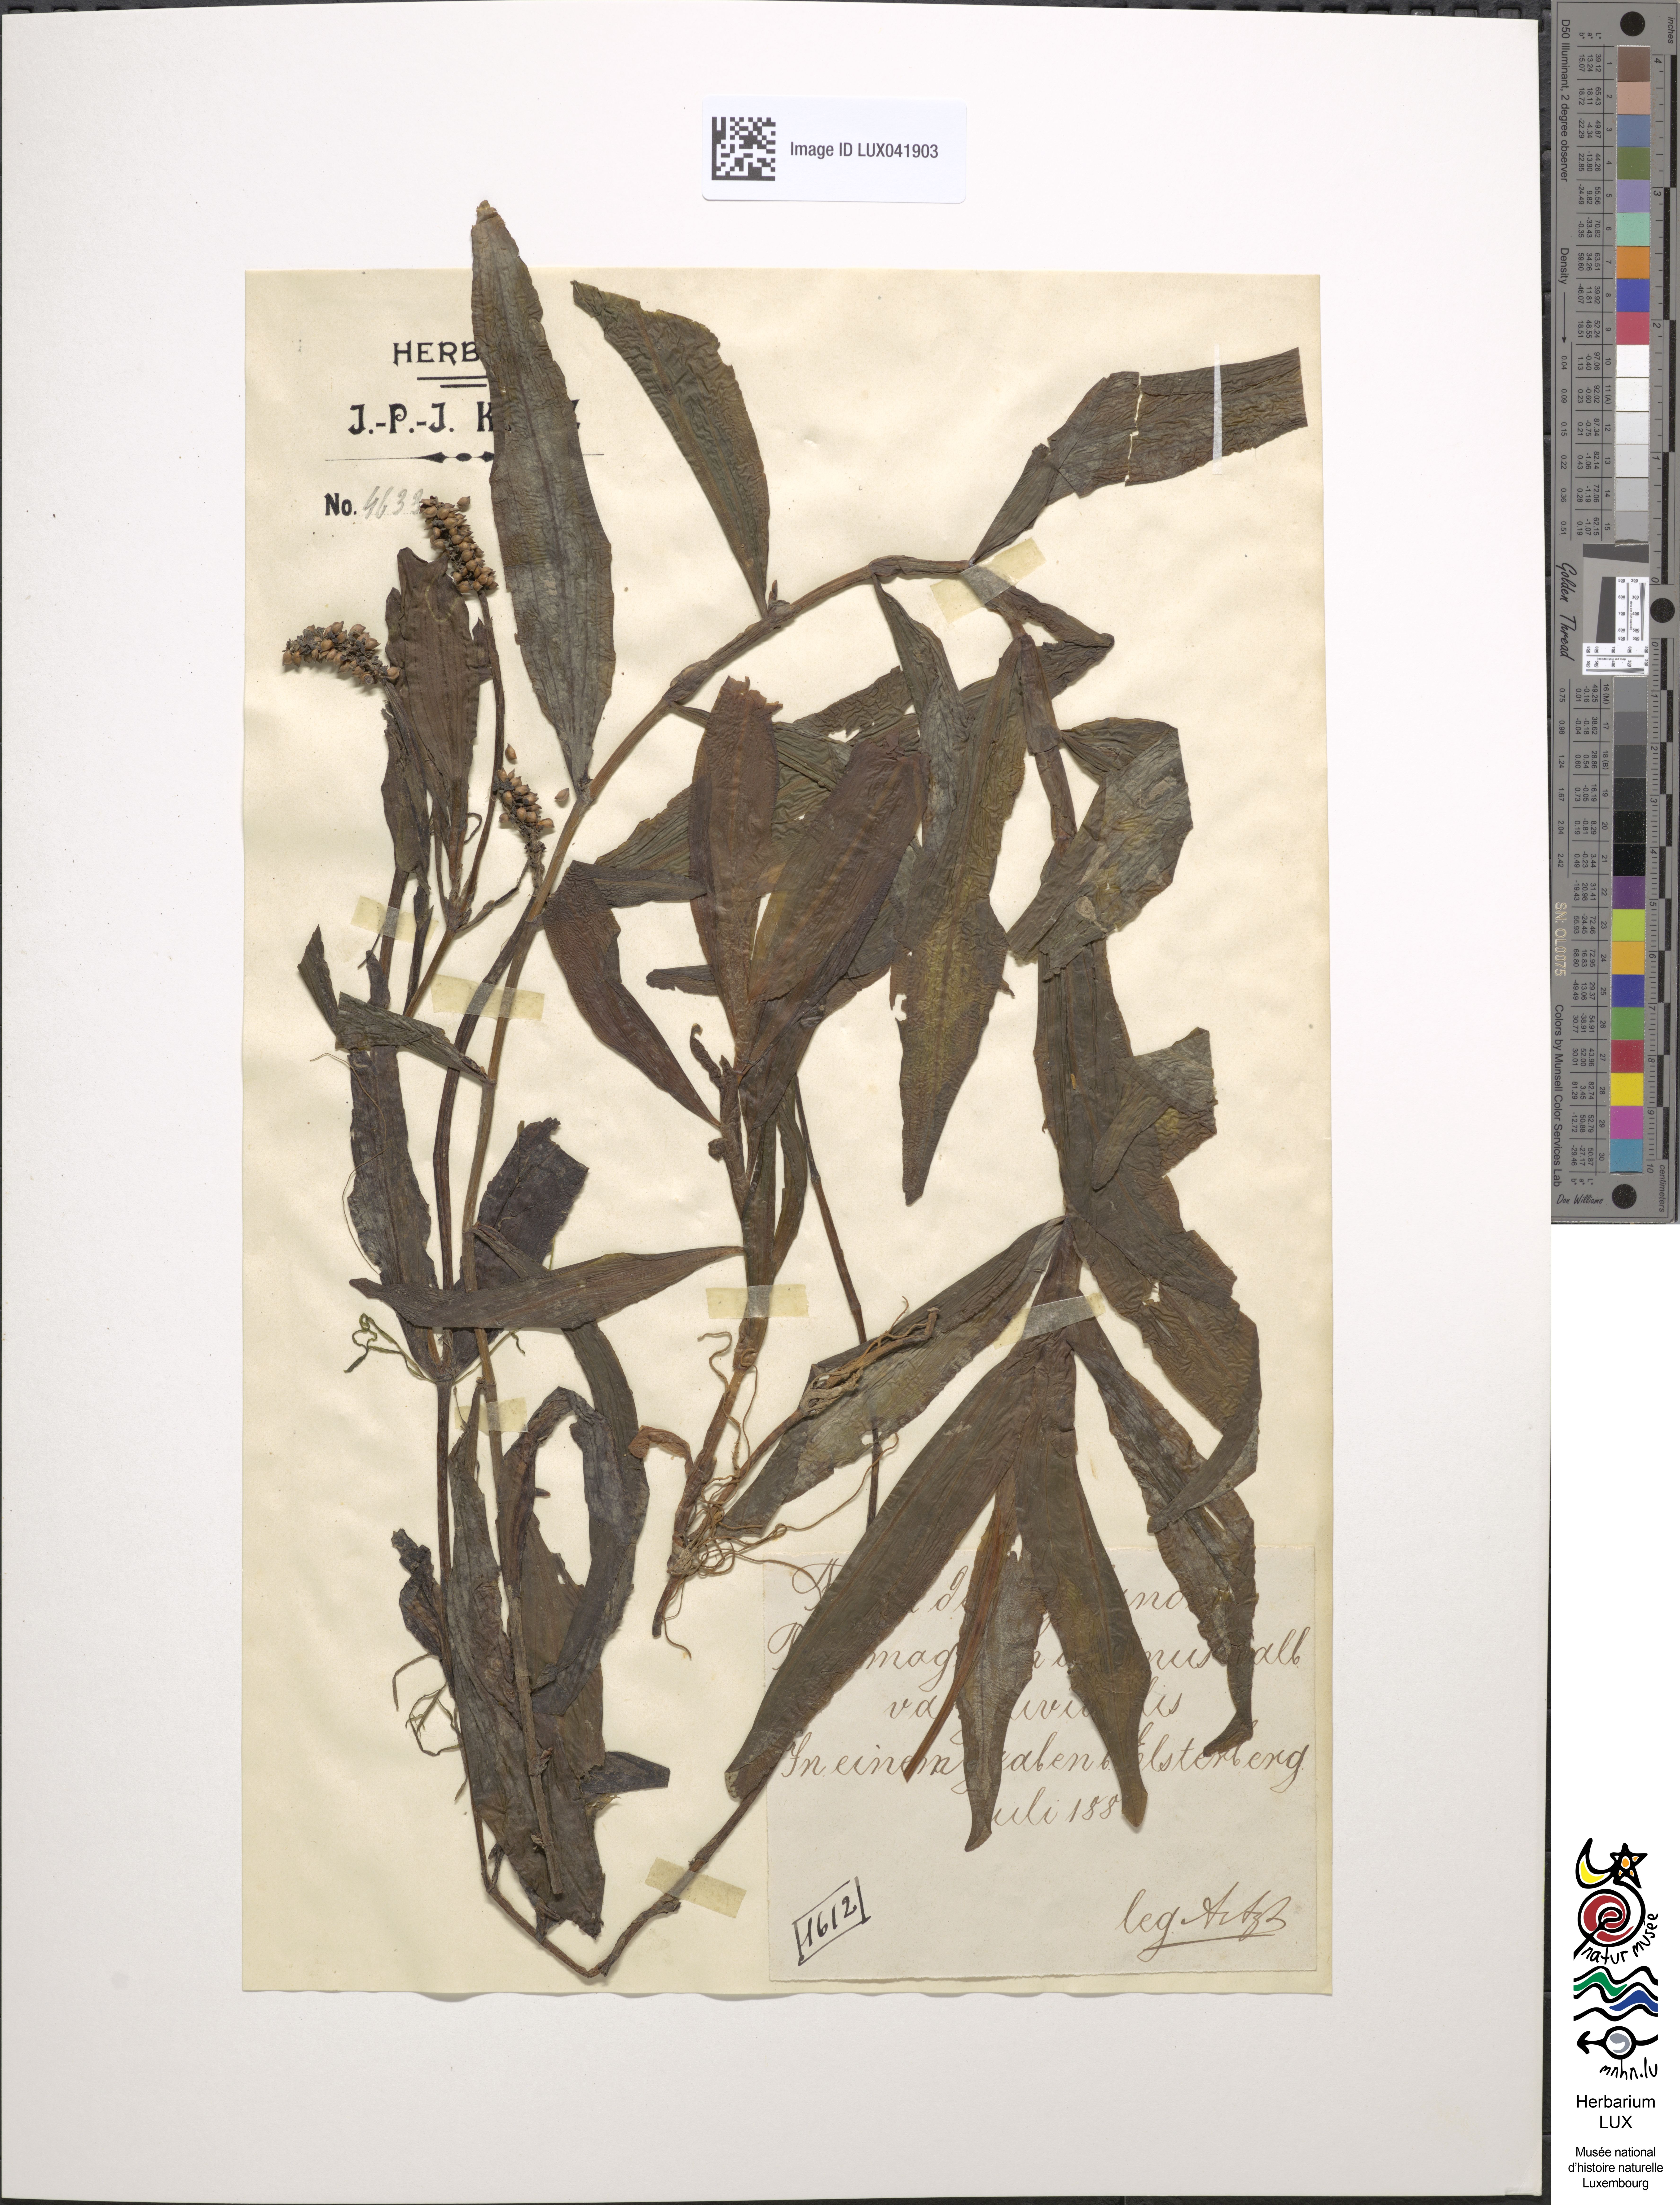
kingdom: Plantae
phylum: Tracheophyta
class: Liliopsida
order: Alismatales
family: Potamogetonaceae
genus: Potamogeton
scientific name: Potamogeton alpinus
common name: Red pondweed
